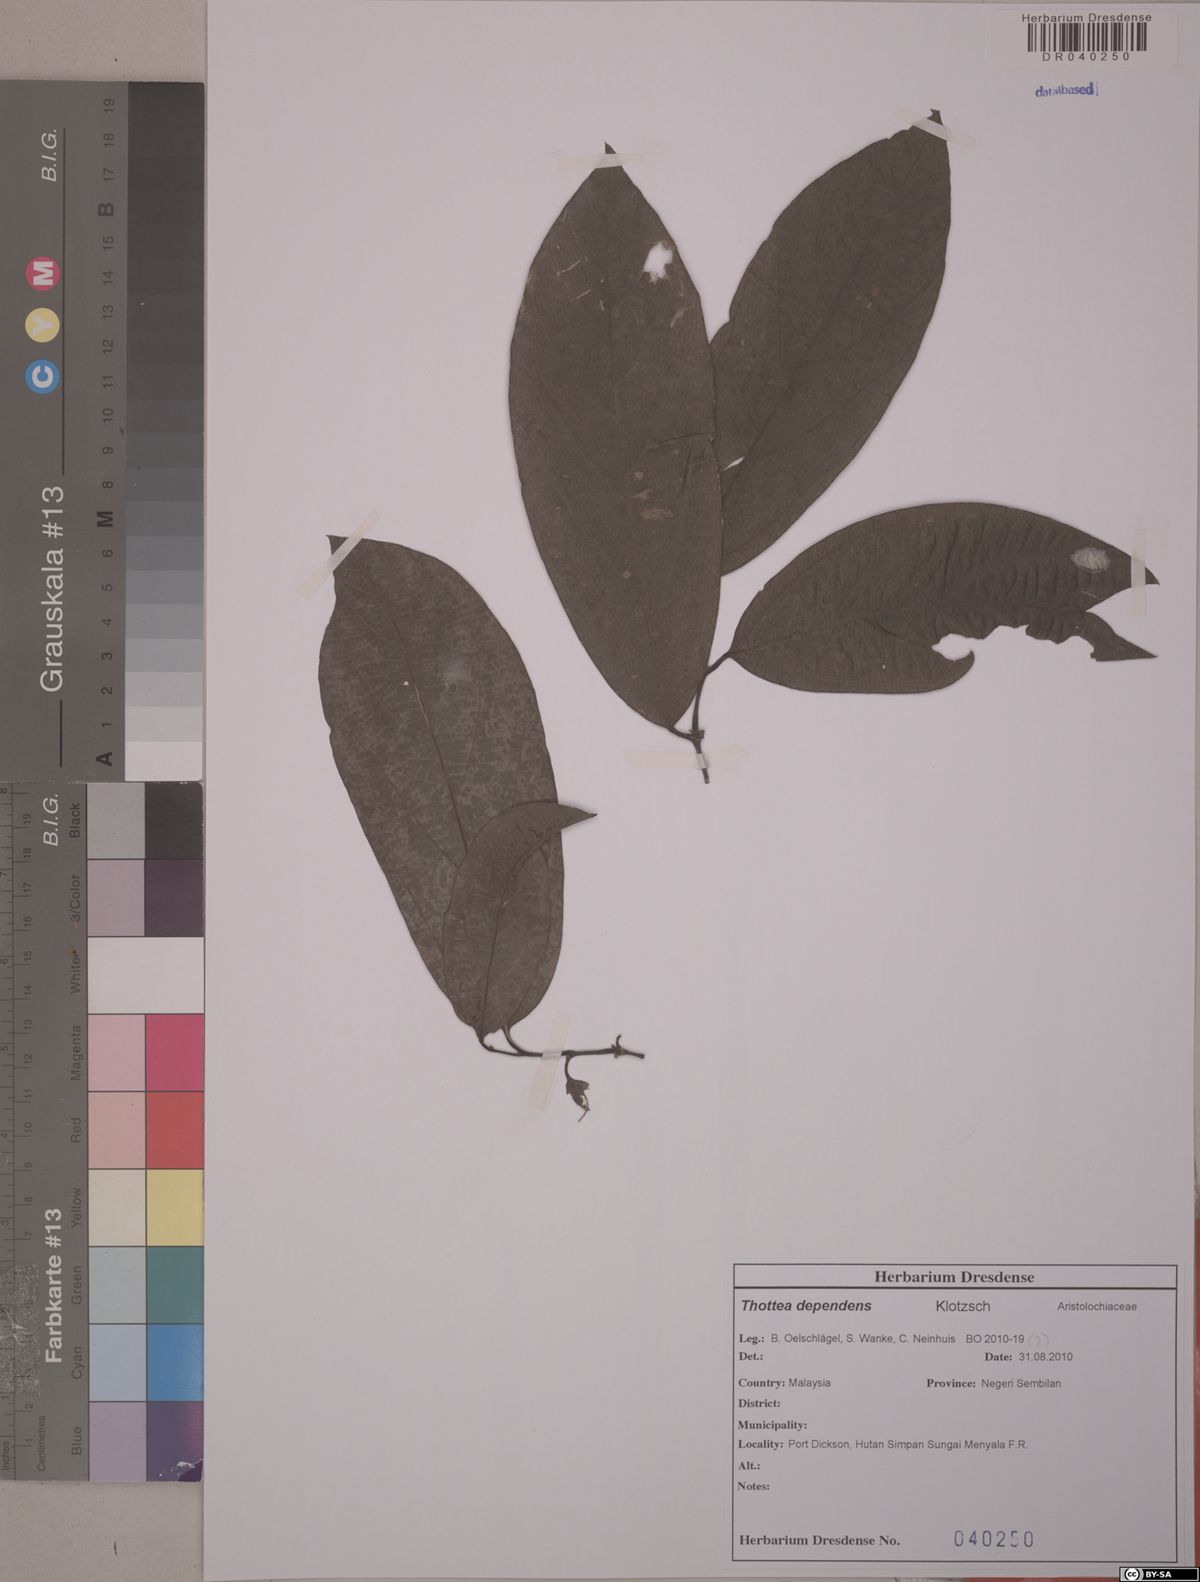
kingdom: Plantae
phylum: Tracheophyta
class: Magnoliopsida
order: Piperales
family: Aristolochiaceae
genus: Thottea
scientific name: Thottea dependens
